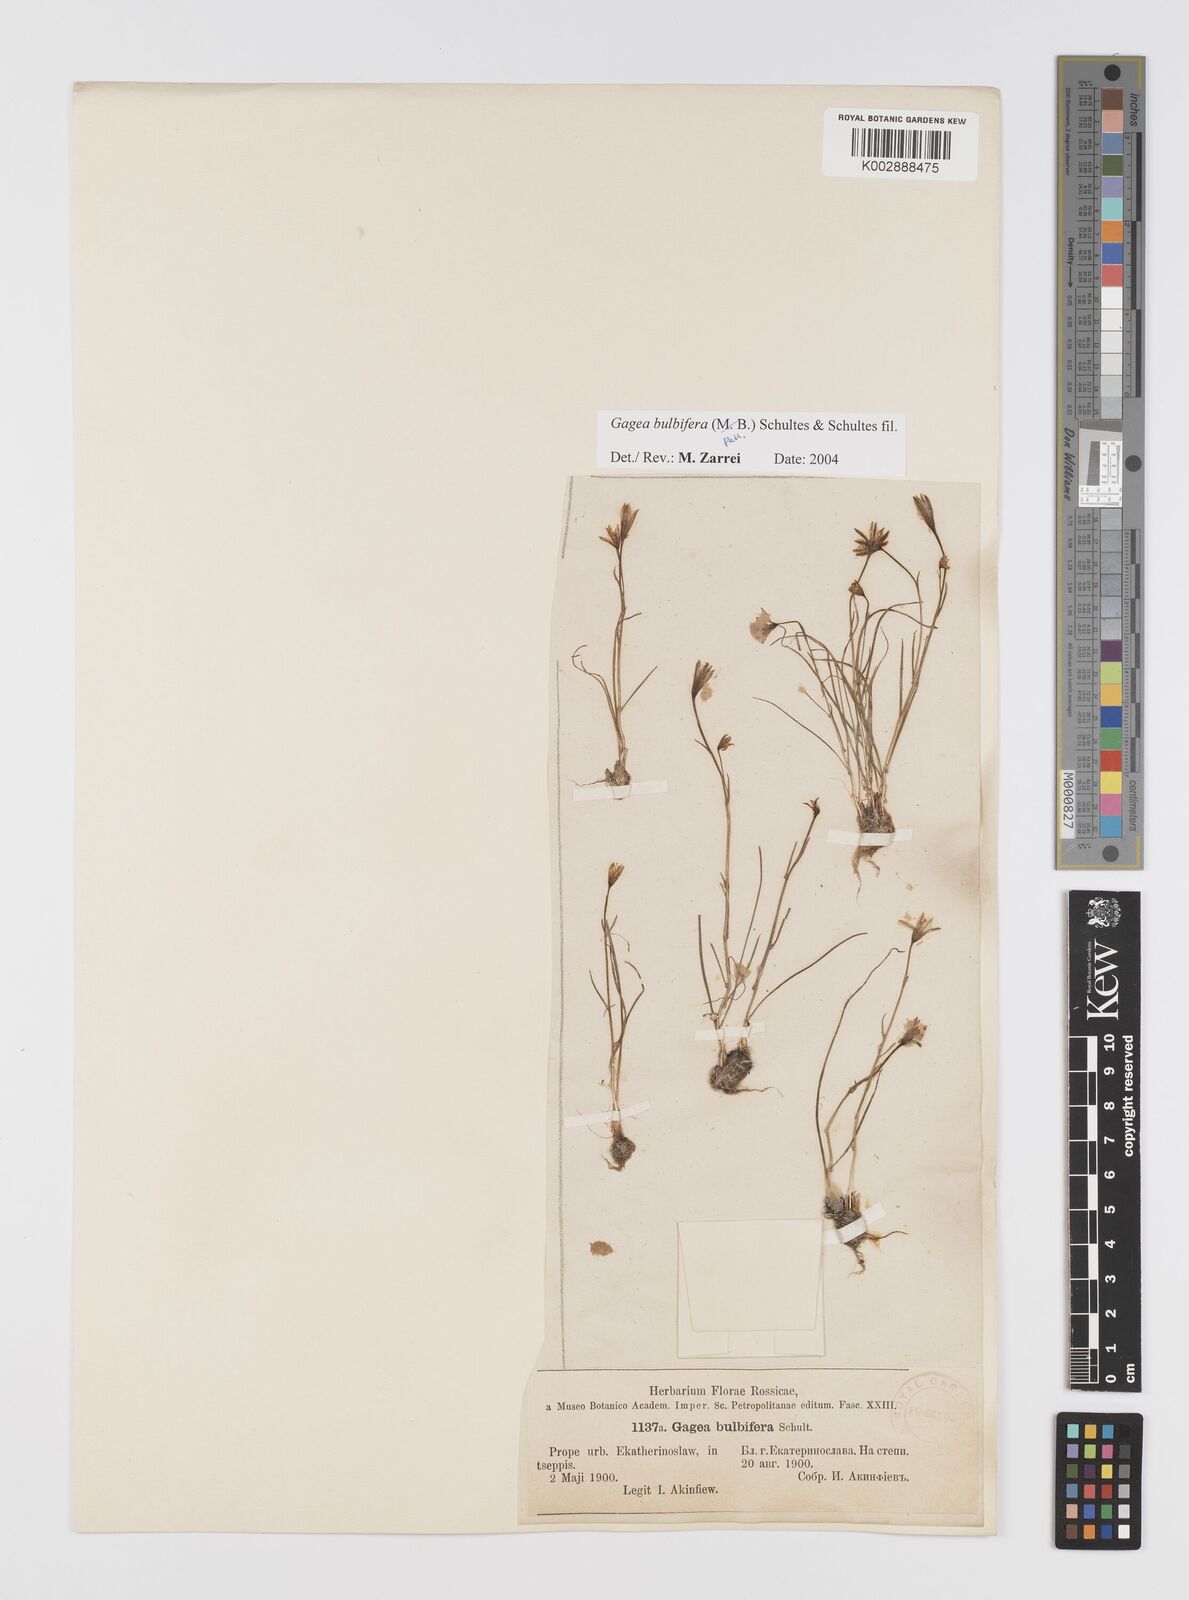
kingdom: Plantae
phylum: Tracheophyta
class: Liliopsida
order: Liliales
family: Liliaceae
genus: Gagea
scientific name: Gagea bulbifera
